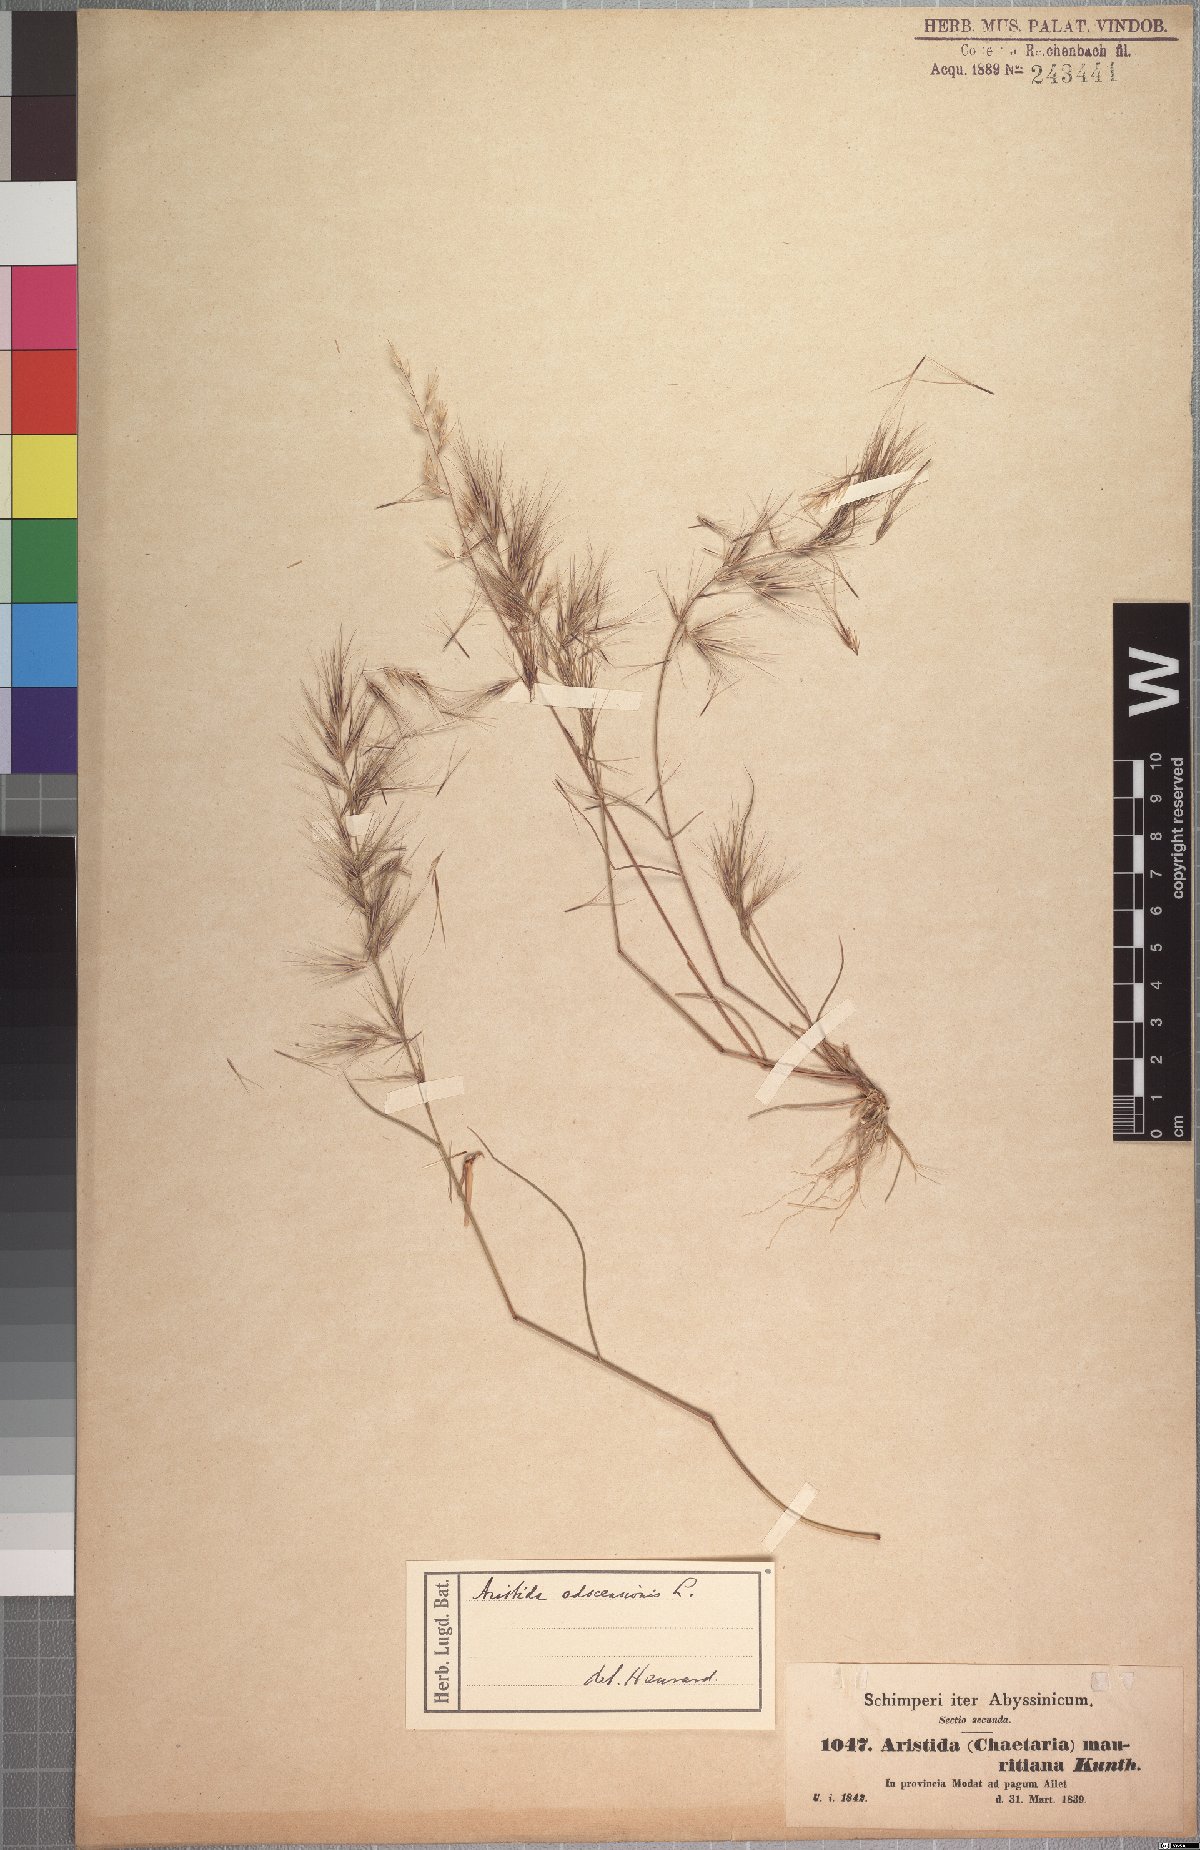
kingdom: Plantae
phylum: Tracheophyta
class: Liliopsida
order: Poales
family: Poaceae
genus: Aristida
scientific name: Aristida adscensionis
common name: Sixweeks threeawn
